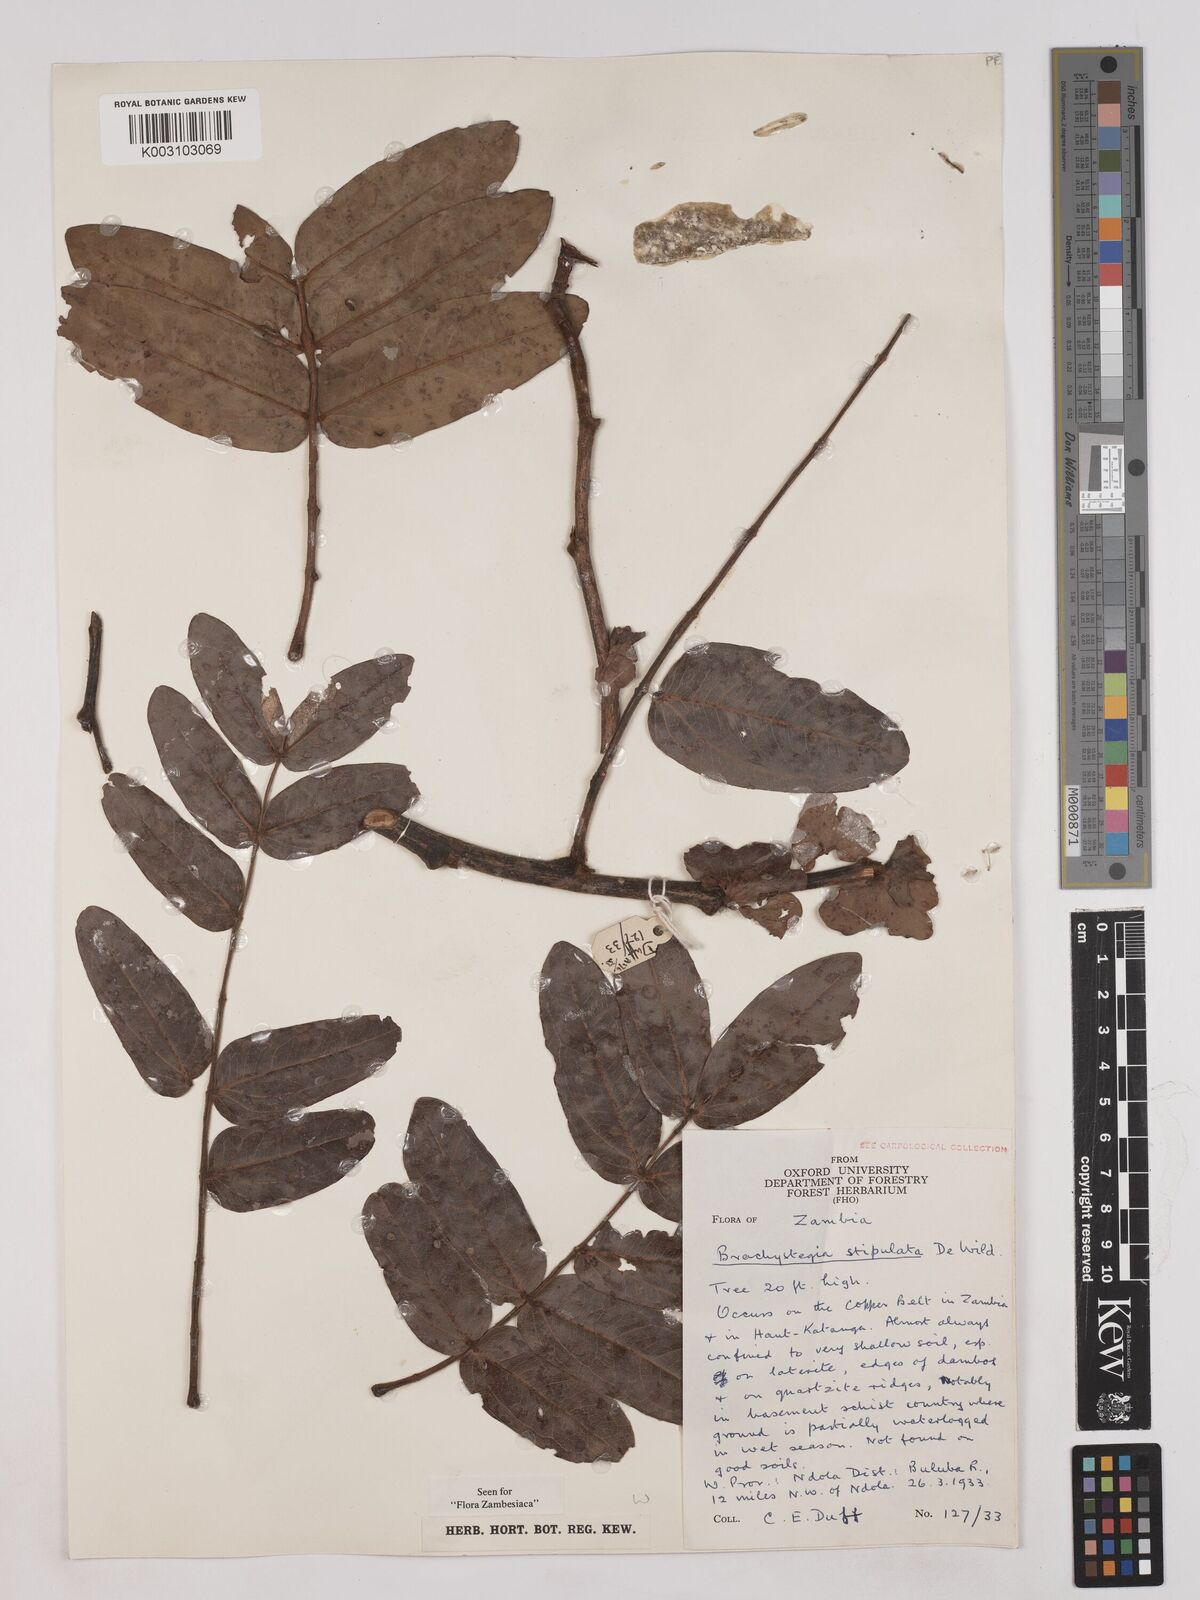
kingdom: Plantae
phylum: Tracheophyta
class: Magnoliopsida
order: Fabales
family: Fabaceae
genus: Brachystegia
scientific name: Brachystegia stipulata
